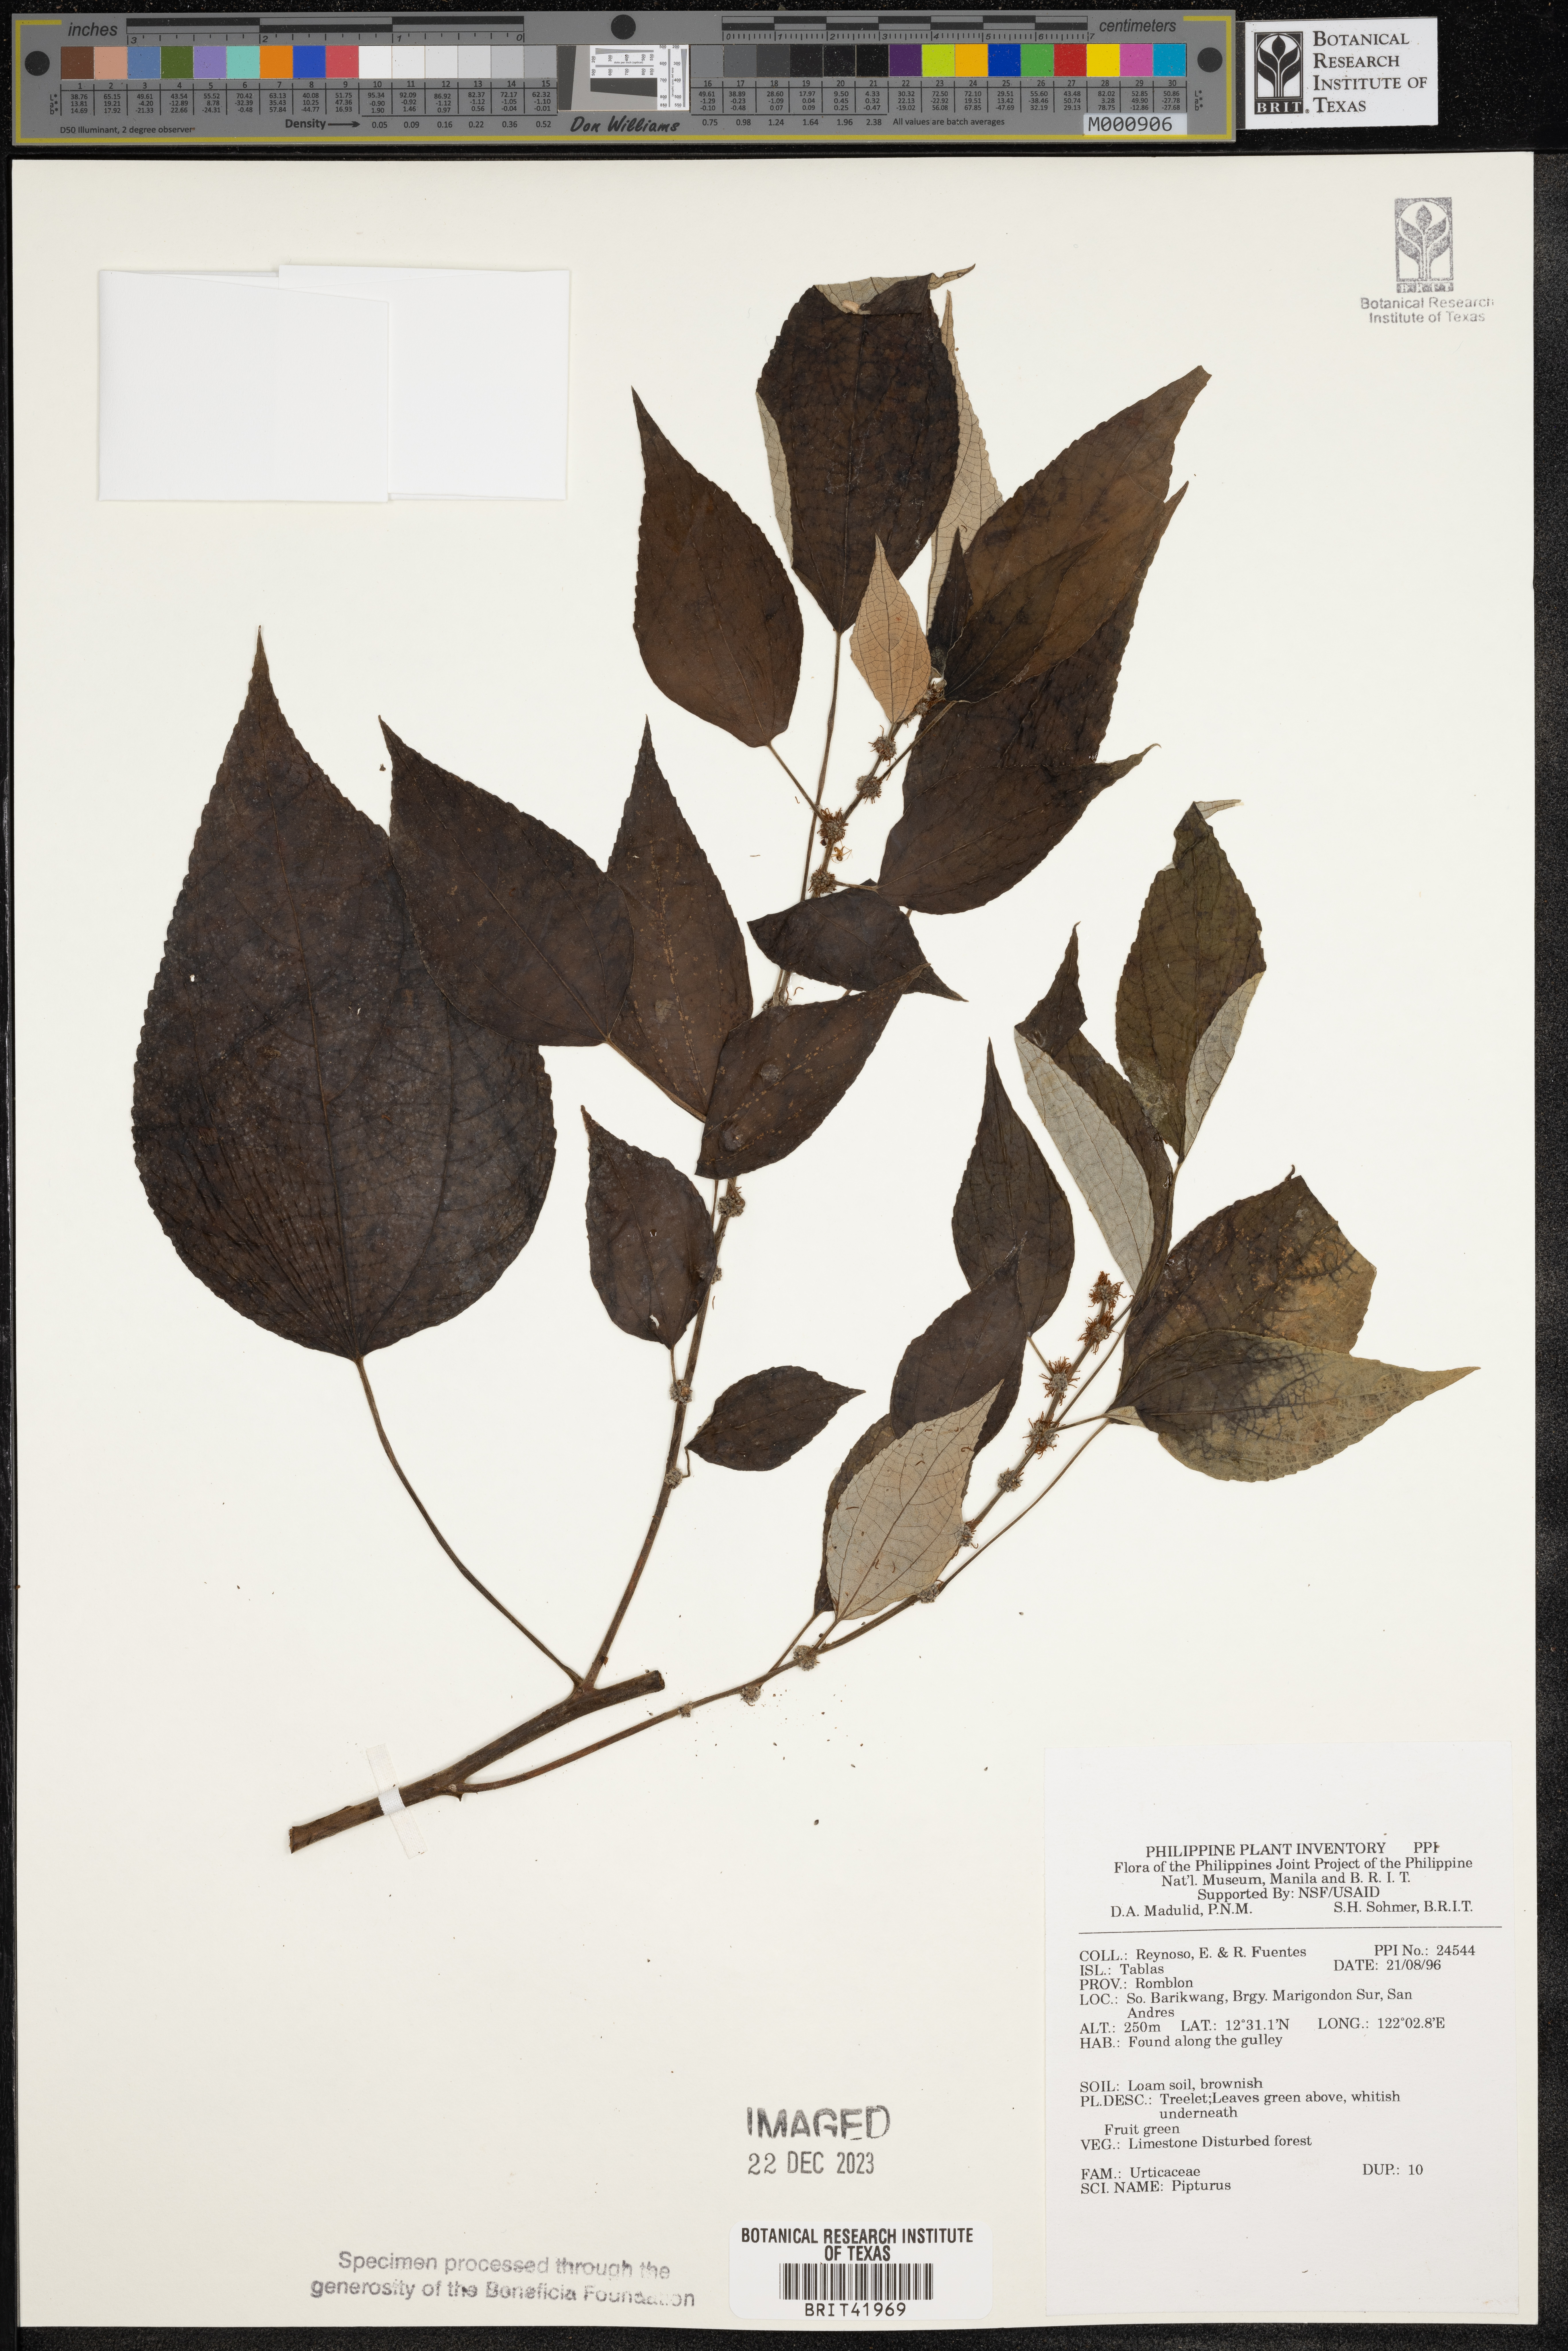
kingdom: Plantae
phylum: Tracheophyta
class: Magnoliopsida
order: Rosales
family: Urticaceae
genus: Pipturus
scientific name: Pipturus
